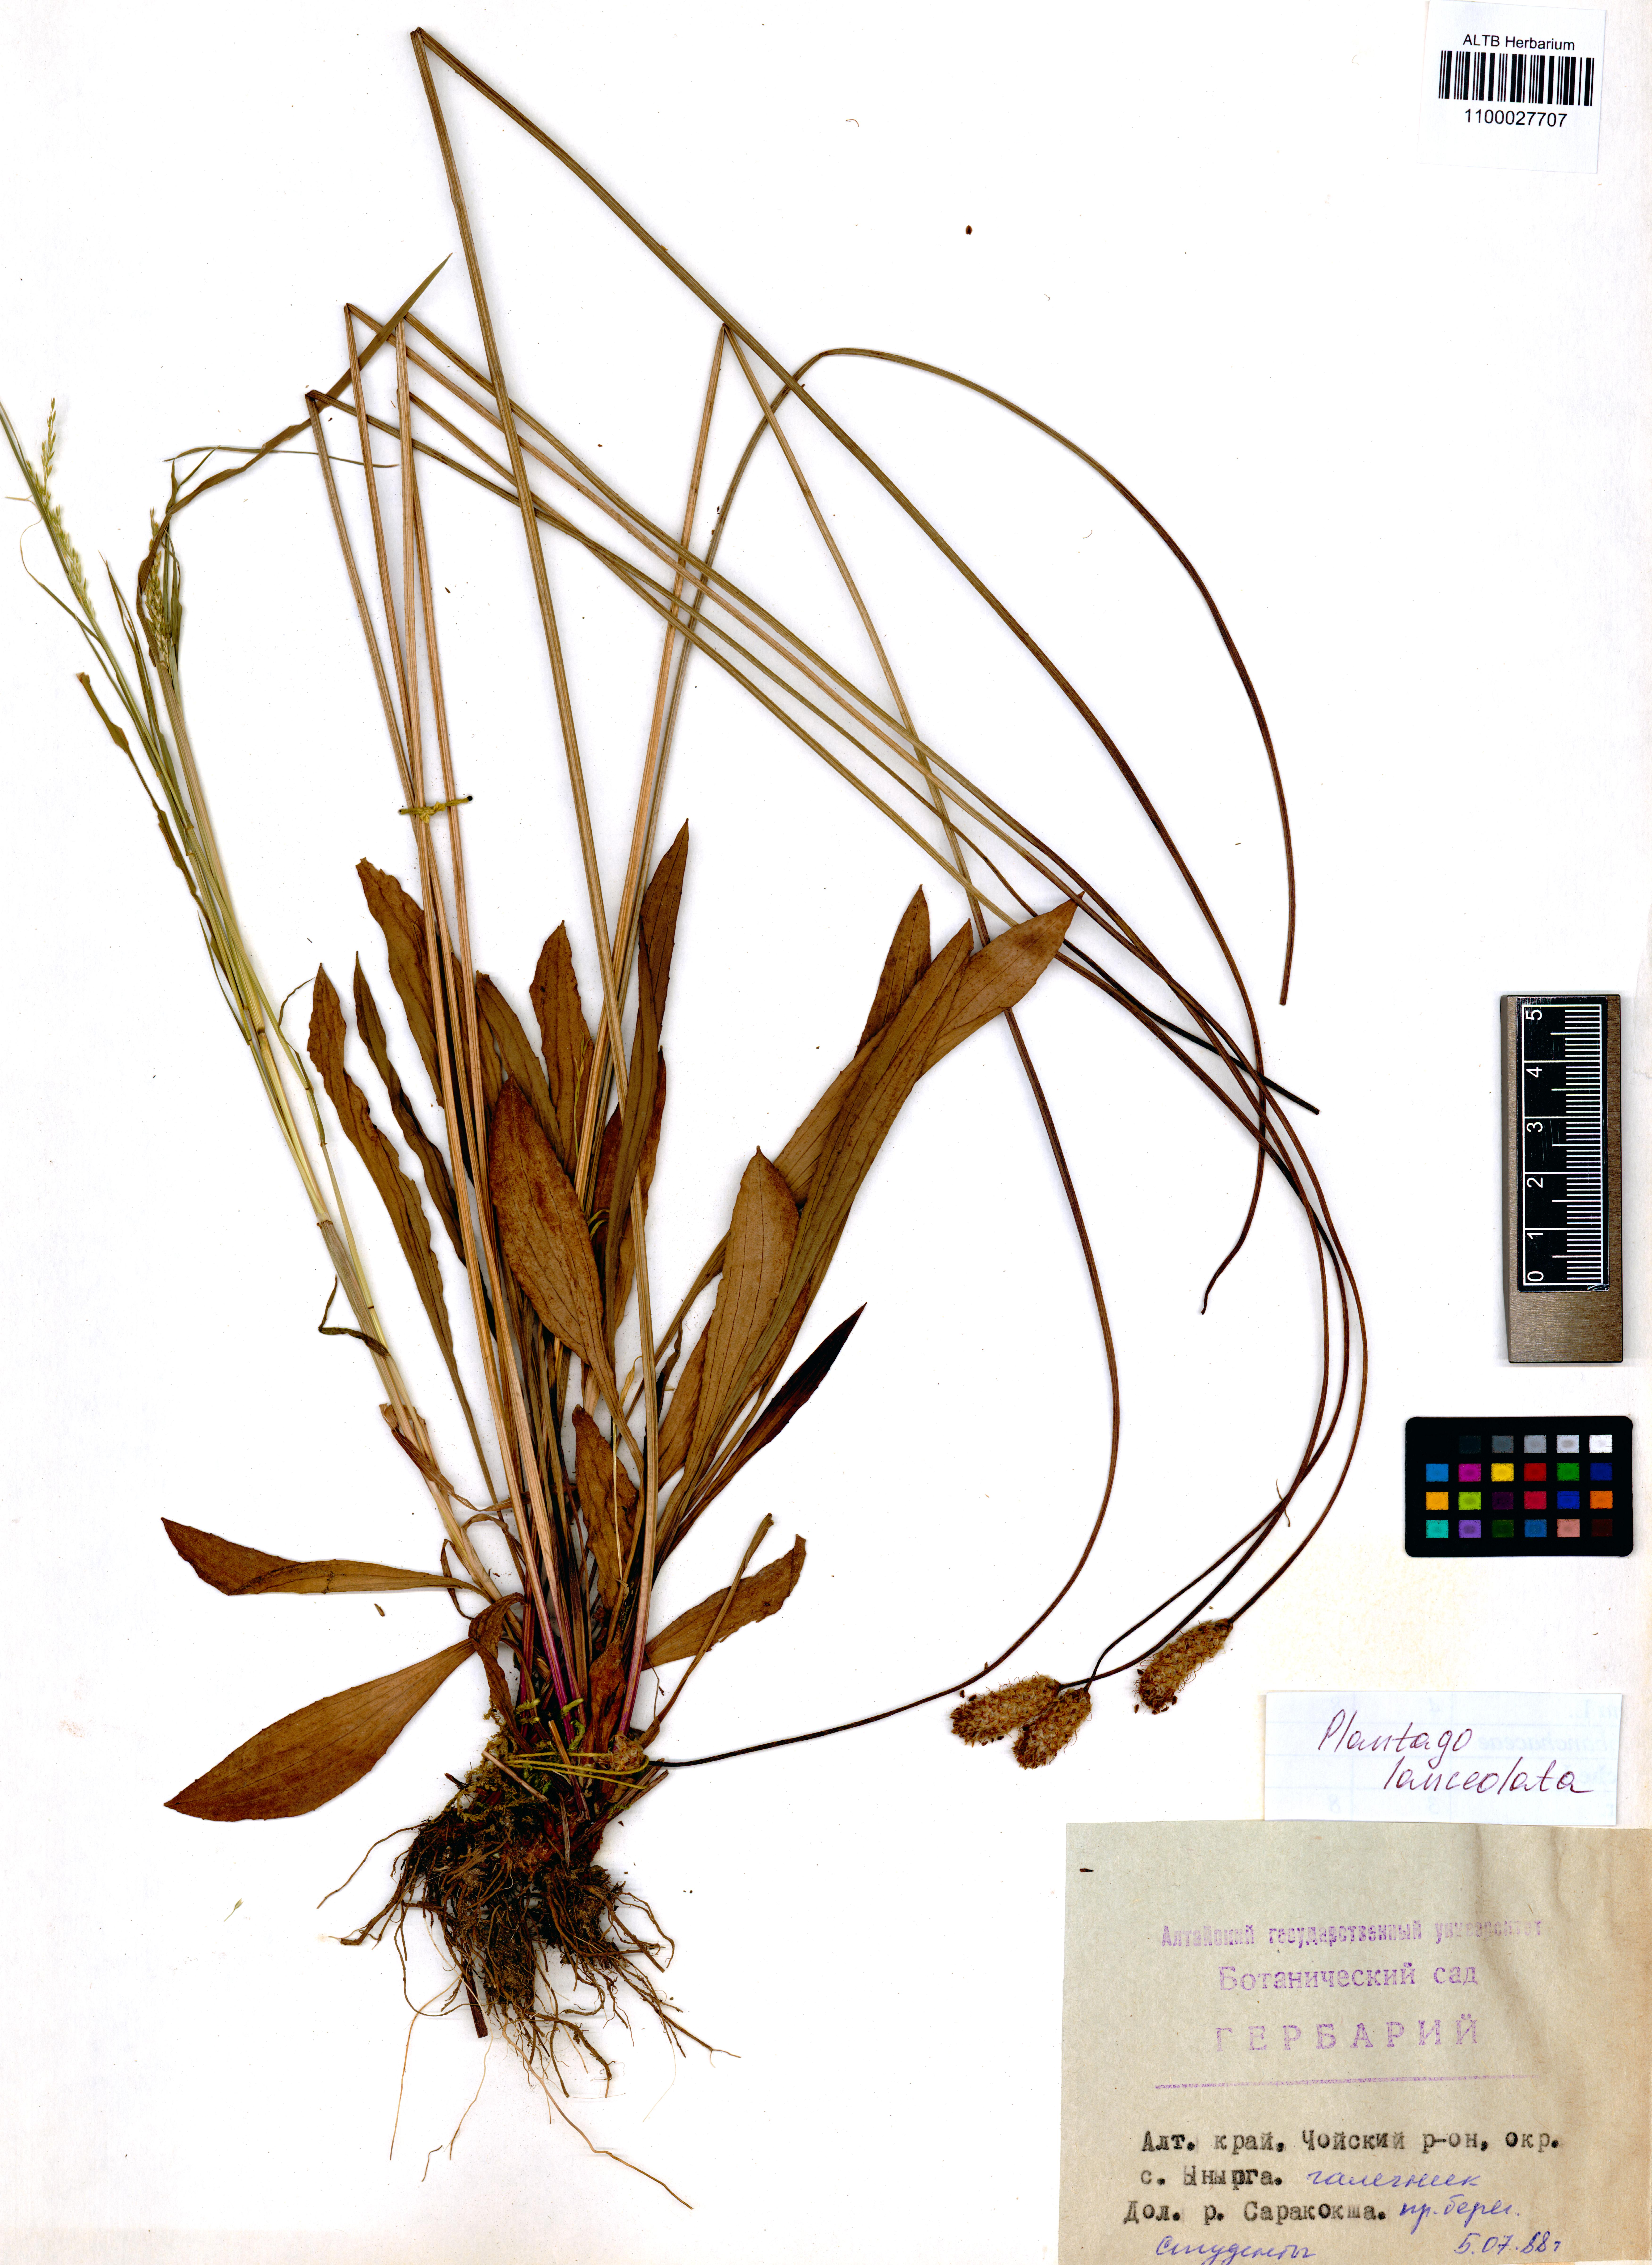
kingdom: Plantae
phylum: Tracheophyta
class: Magnoliopsida
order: Lamiales
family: Plantaginaceae
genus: Plantago
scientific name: Plantago lanceolata
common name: Ribwort plantain
